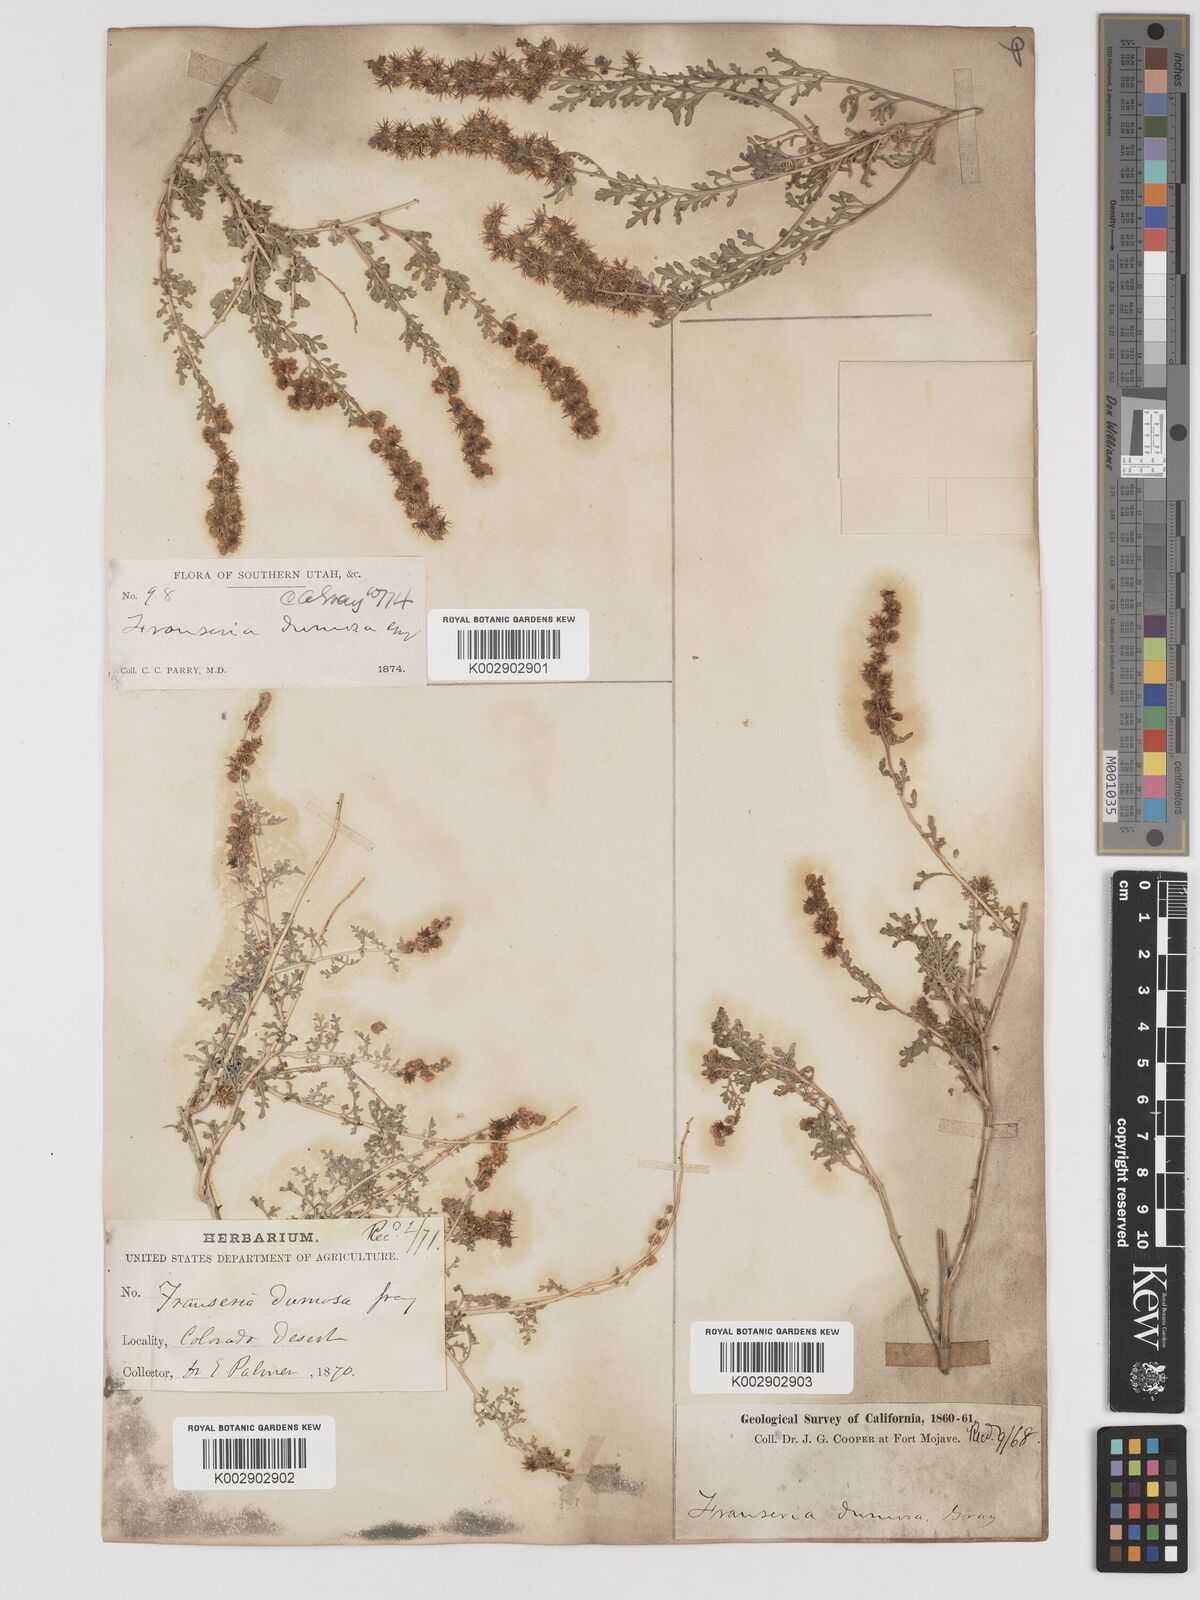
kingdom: Plantae
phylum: Tracheophyta
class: Magnoliopsida
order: Asterales
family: Asteraceae
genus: Ambrosia
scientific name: Ambrosia dumosa
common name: Bur-sage
